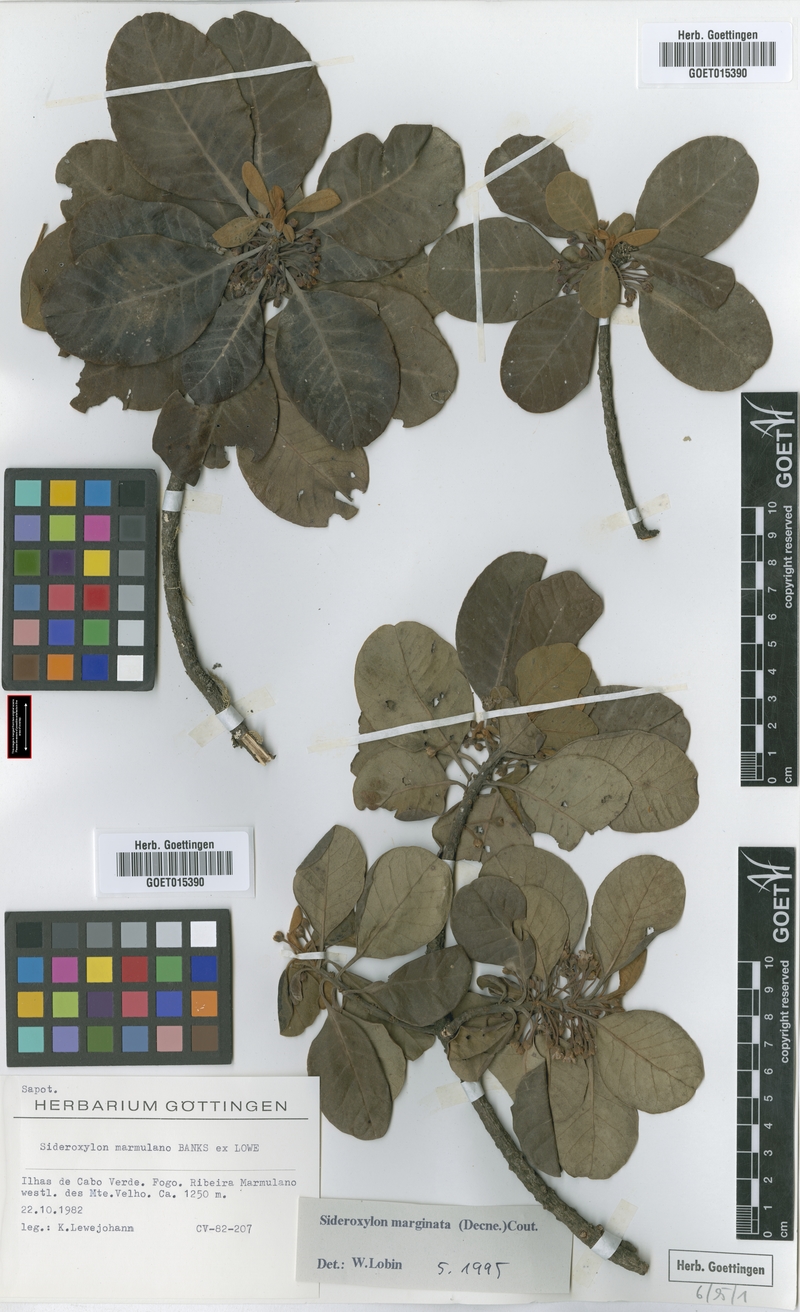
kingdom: Plantae
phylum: Tracheophyta
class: Magnoliopsida
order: Ericales
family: Sapotaceae
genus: Sideroxylon
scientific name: Sideroxylon marginatum
